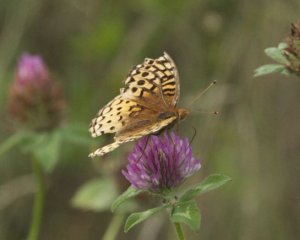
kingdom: Animalia
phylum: Arthropoda
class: Insecta
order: Lepidoptera
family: Nymphalidae
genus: Speyeria
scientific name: Speyeria cybele
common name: Great Spangled Fritillary
